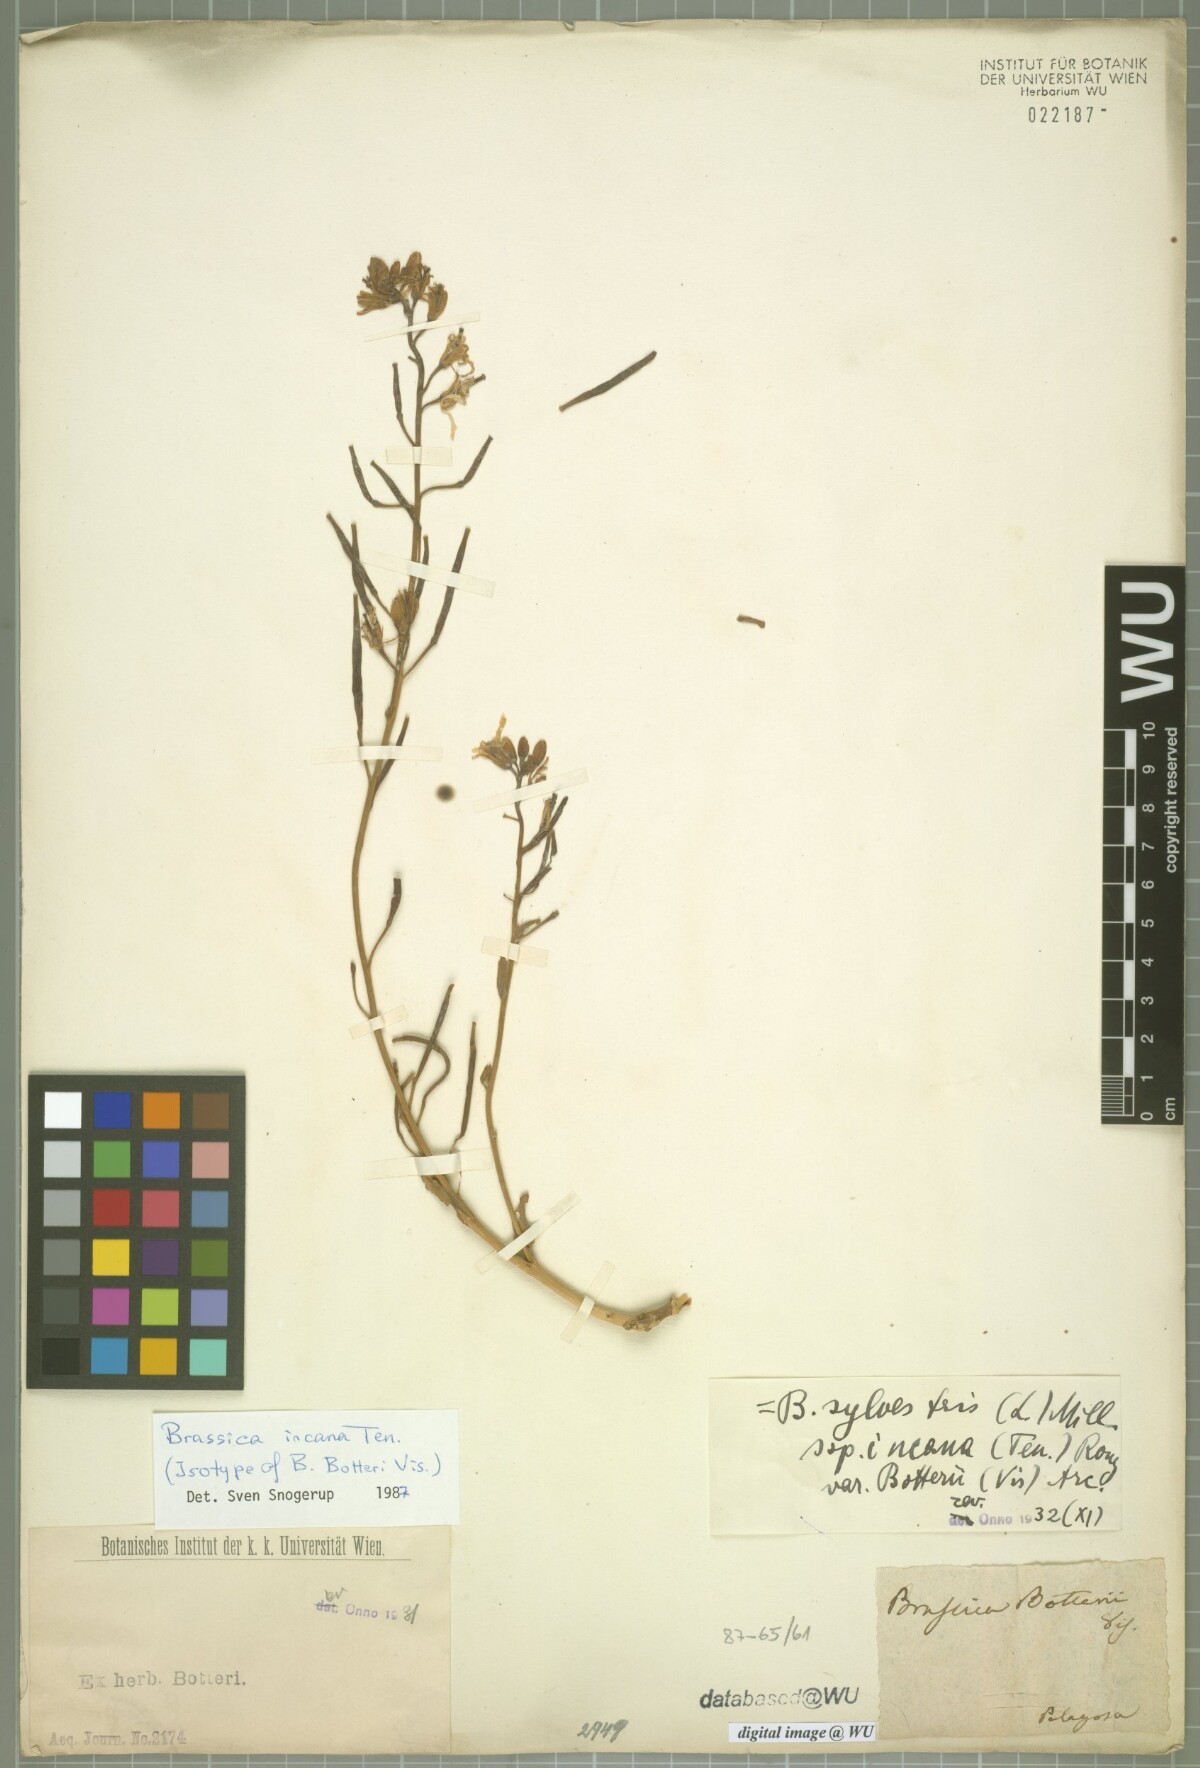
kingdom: Plantae
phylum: Tracheophyta
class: Magnoliopsida
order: Brassicales
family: Brassicaceae
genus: Brassica
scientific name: Brassica incana
